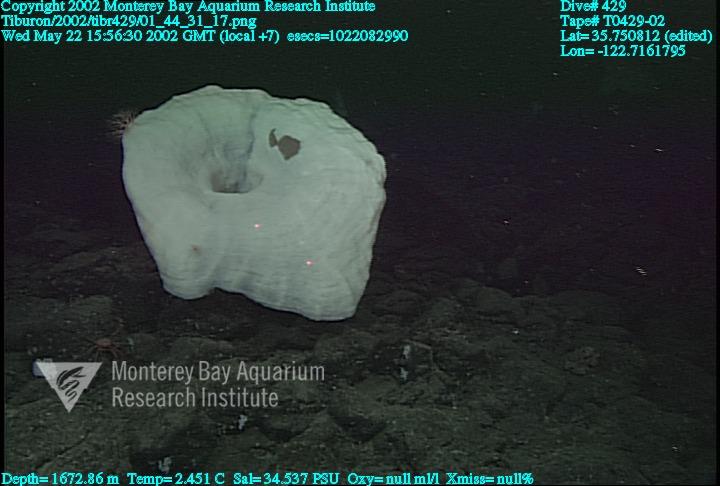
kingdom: Animalia
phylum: Porifera
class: Hexactinellida
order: Sceptrulophora
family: Euretidae
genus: Chonelasma
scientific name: Chonelasma
